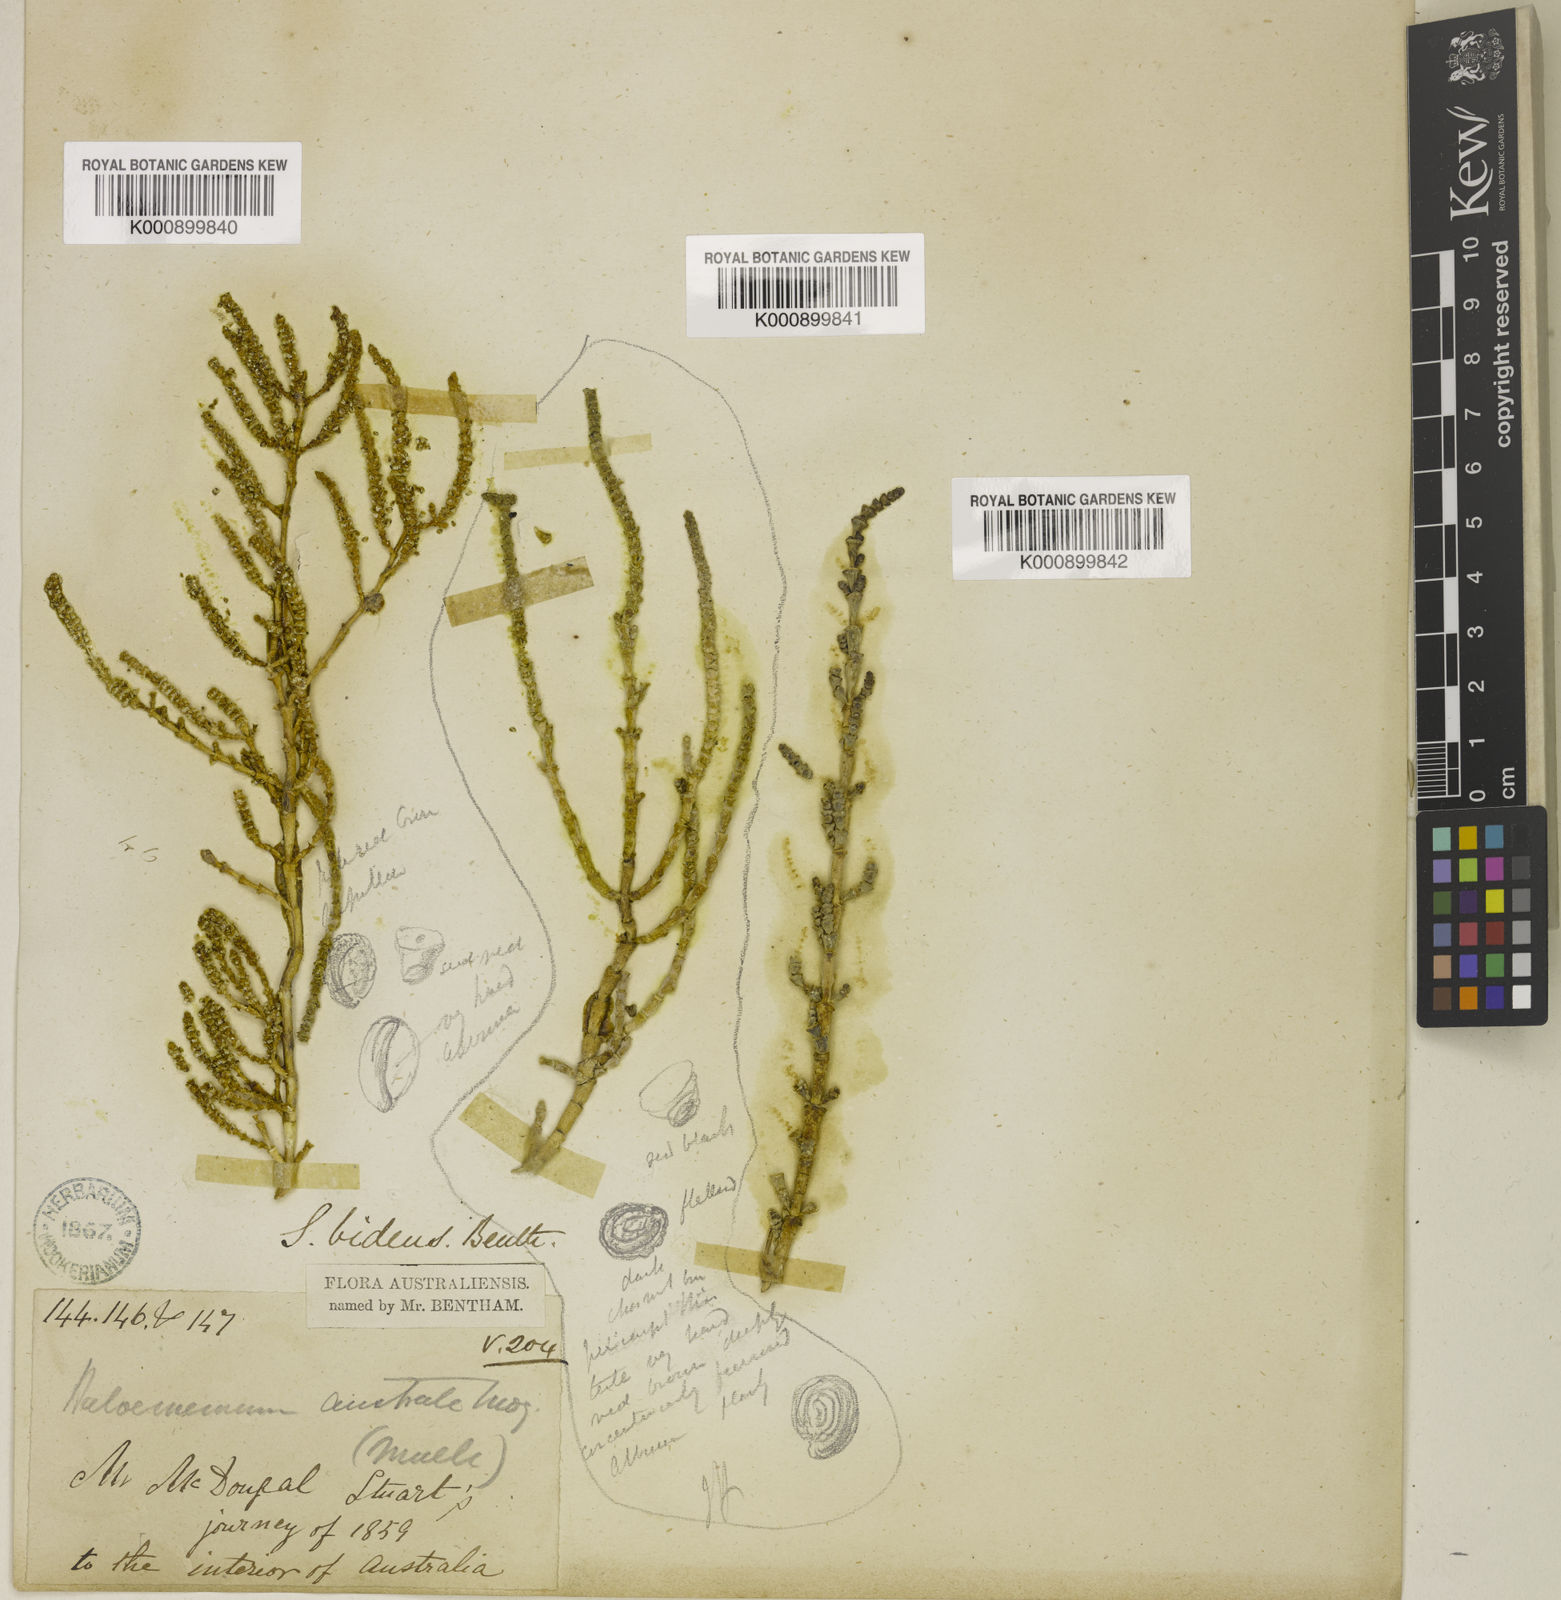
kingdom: Plantae
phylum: Tracheophyta
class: Magnoliopsida
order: Caryophyllales
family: Amaranthaceae
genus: Tecticornia
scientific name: Tecticornia tenuis
